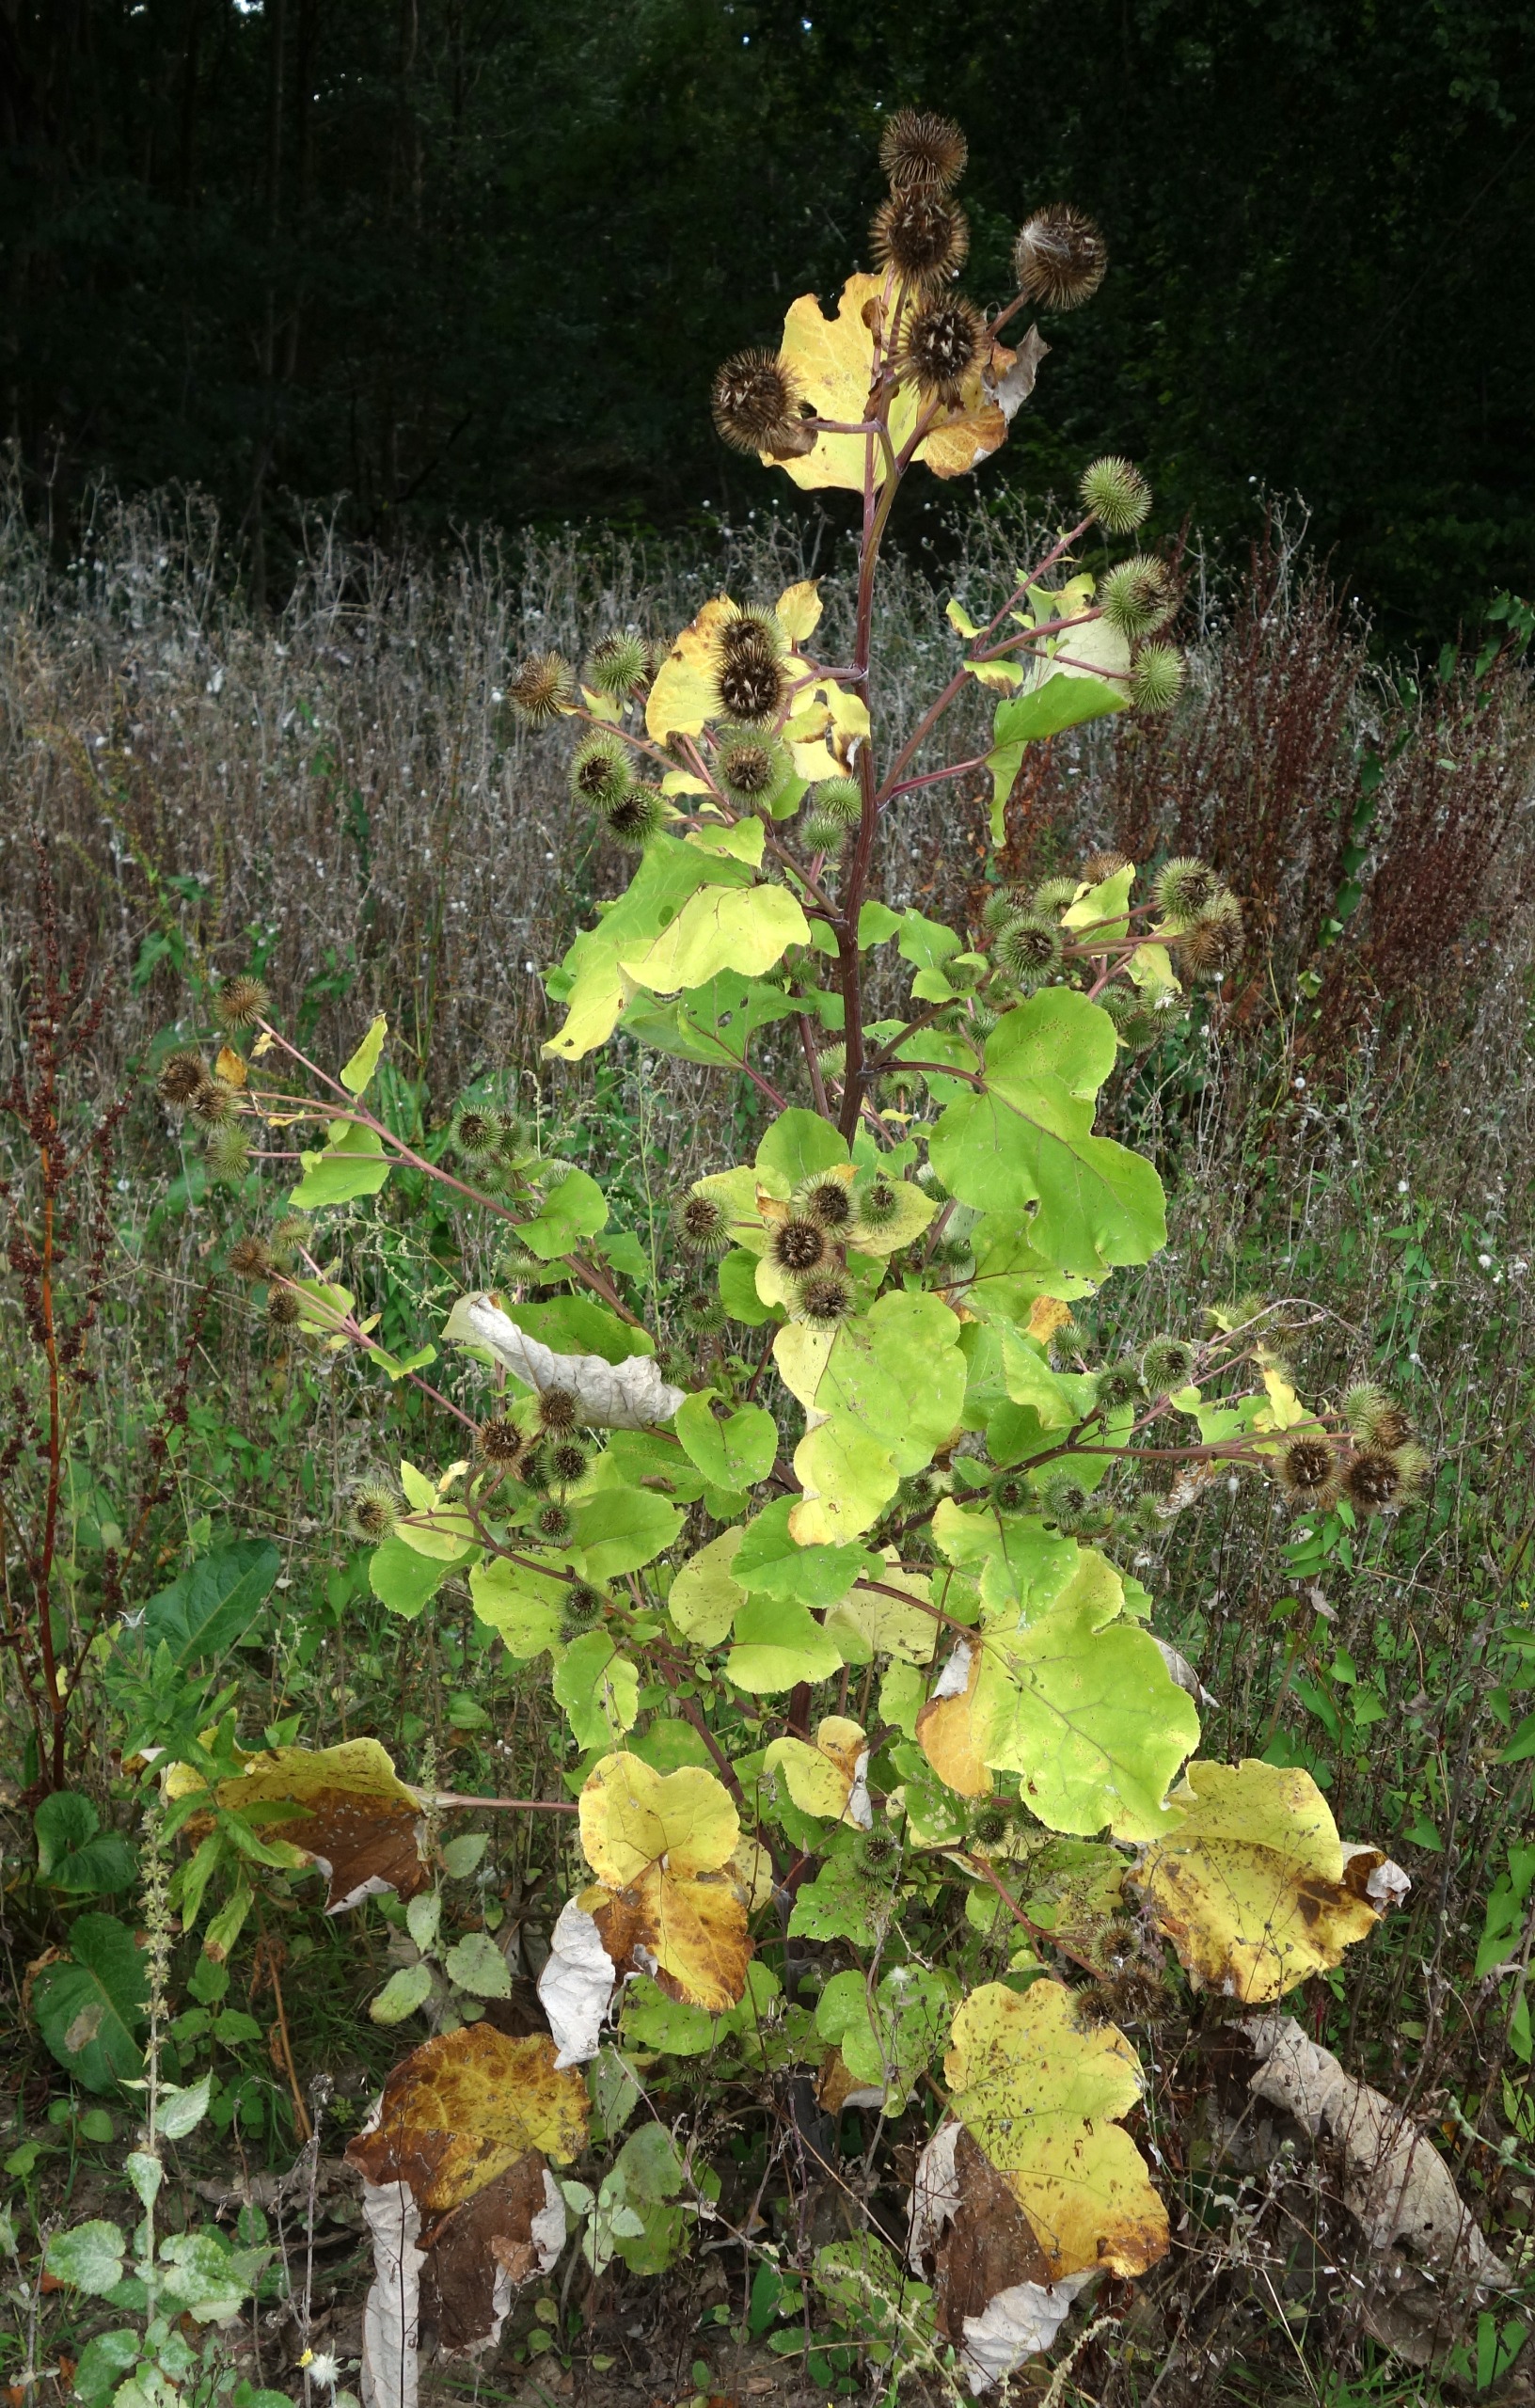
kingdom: Plantae
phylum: Tracheophyta
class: Magnoliopsida
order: Asterales
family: Asteraceae
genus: Arctium
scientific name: Arctium lappa
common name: Glat burre
